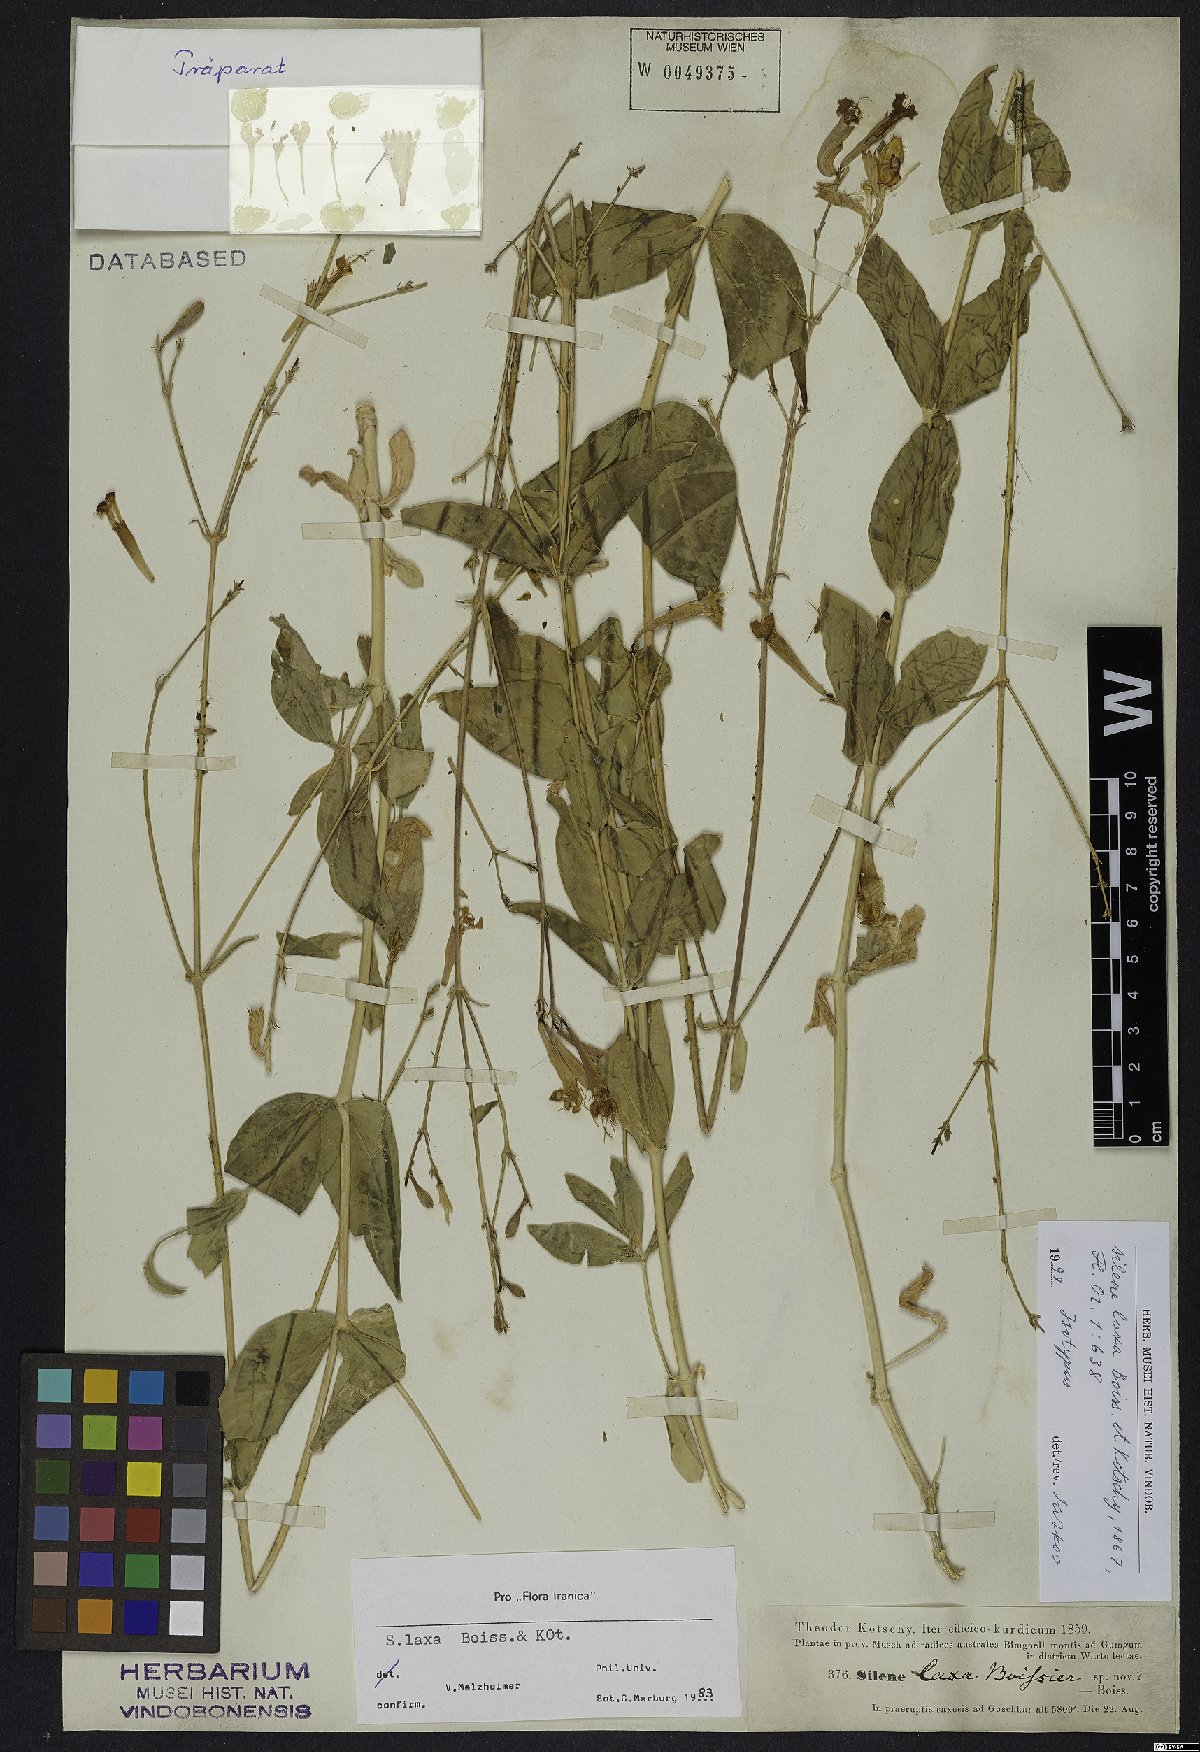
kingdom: Plantae
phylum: Tracheophyta
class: Magnoliopsida
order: Caryophyllales
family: Caryophyllaceae
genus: Silene
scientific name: Silene laxa
